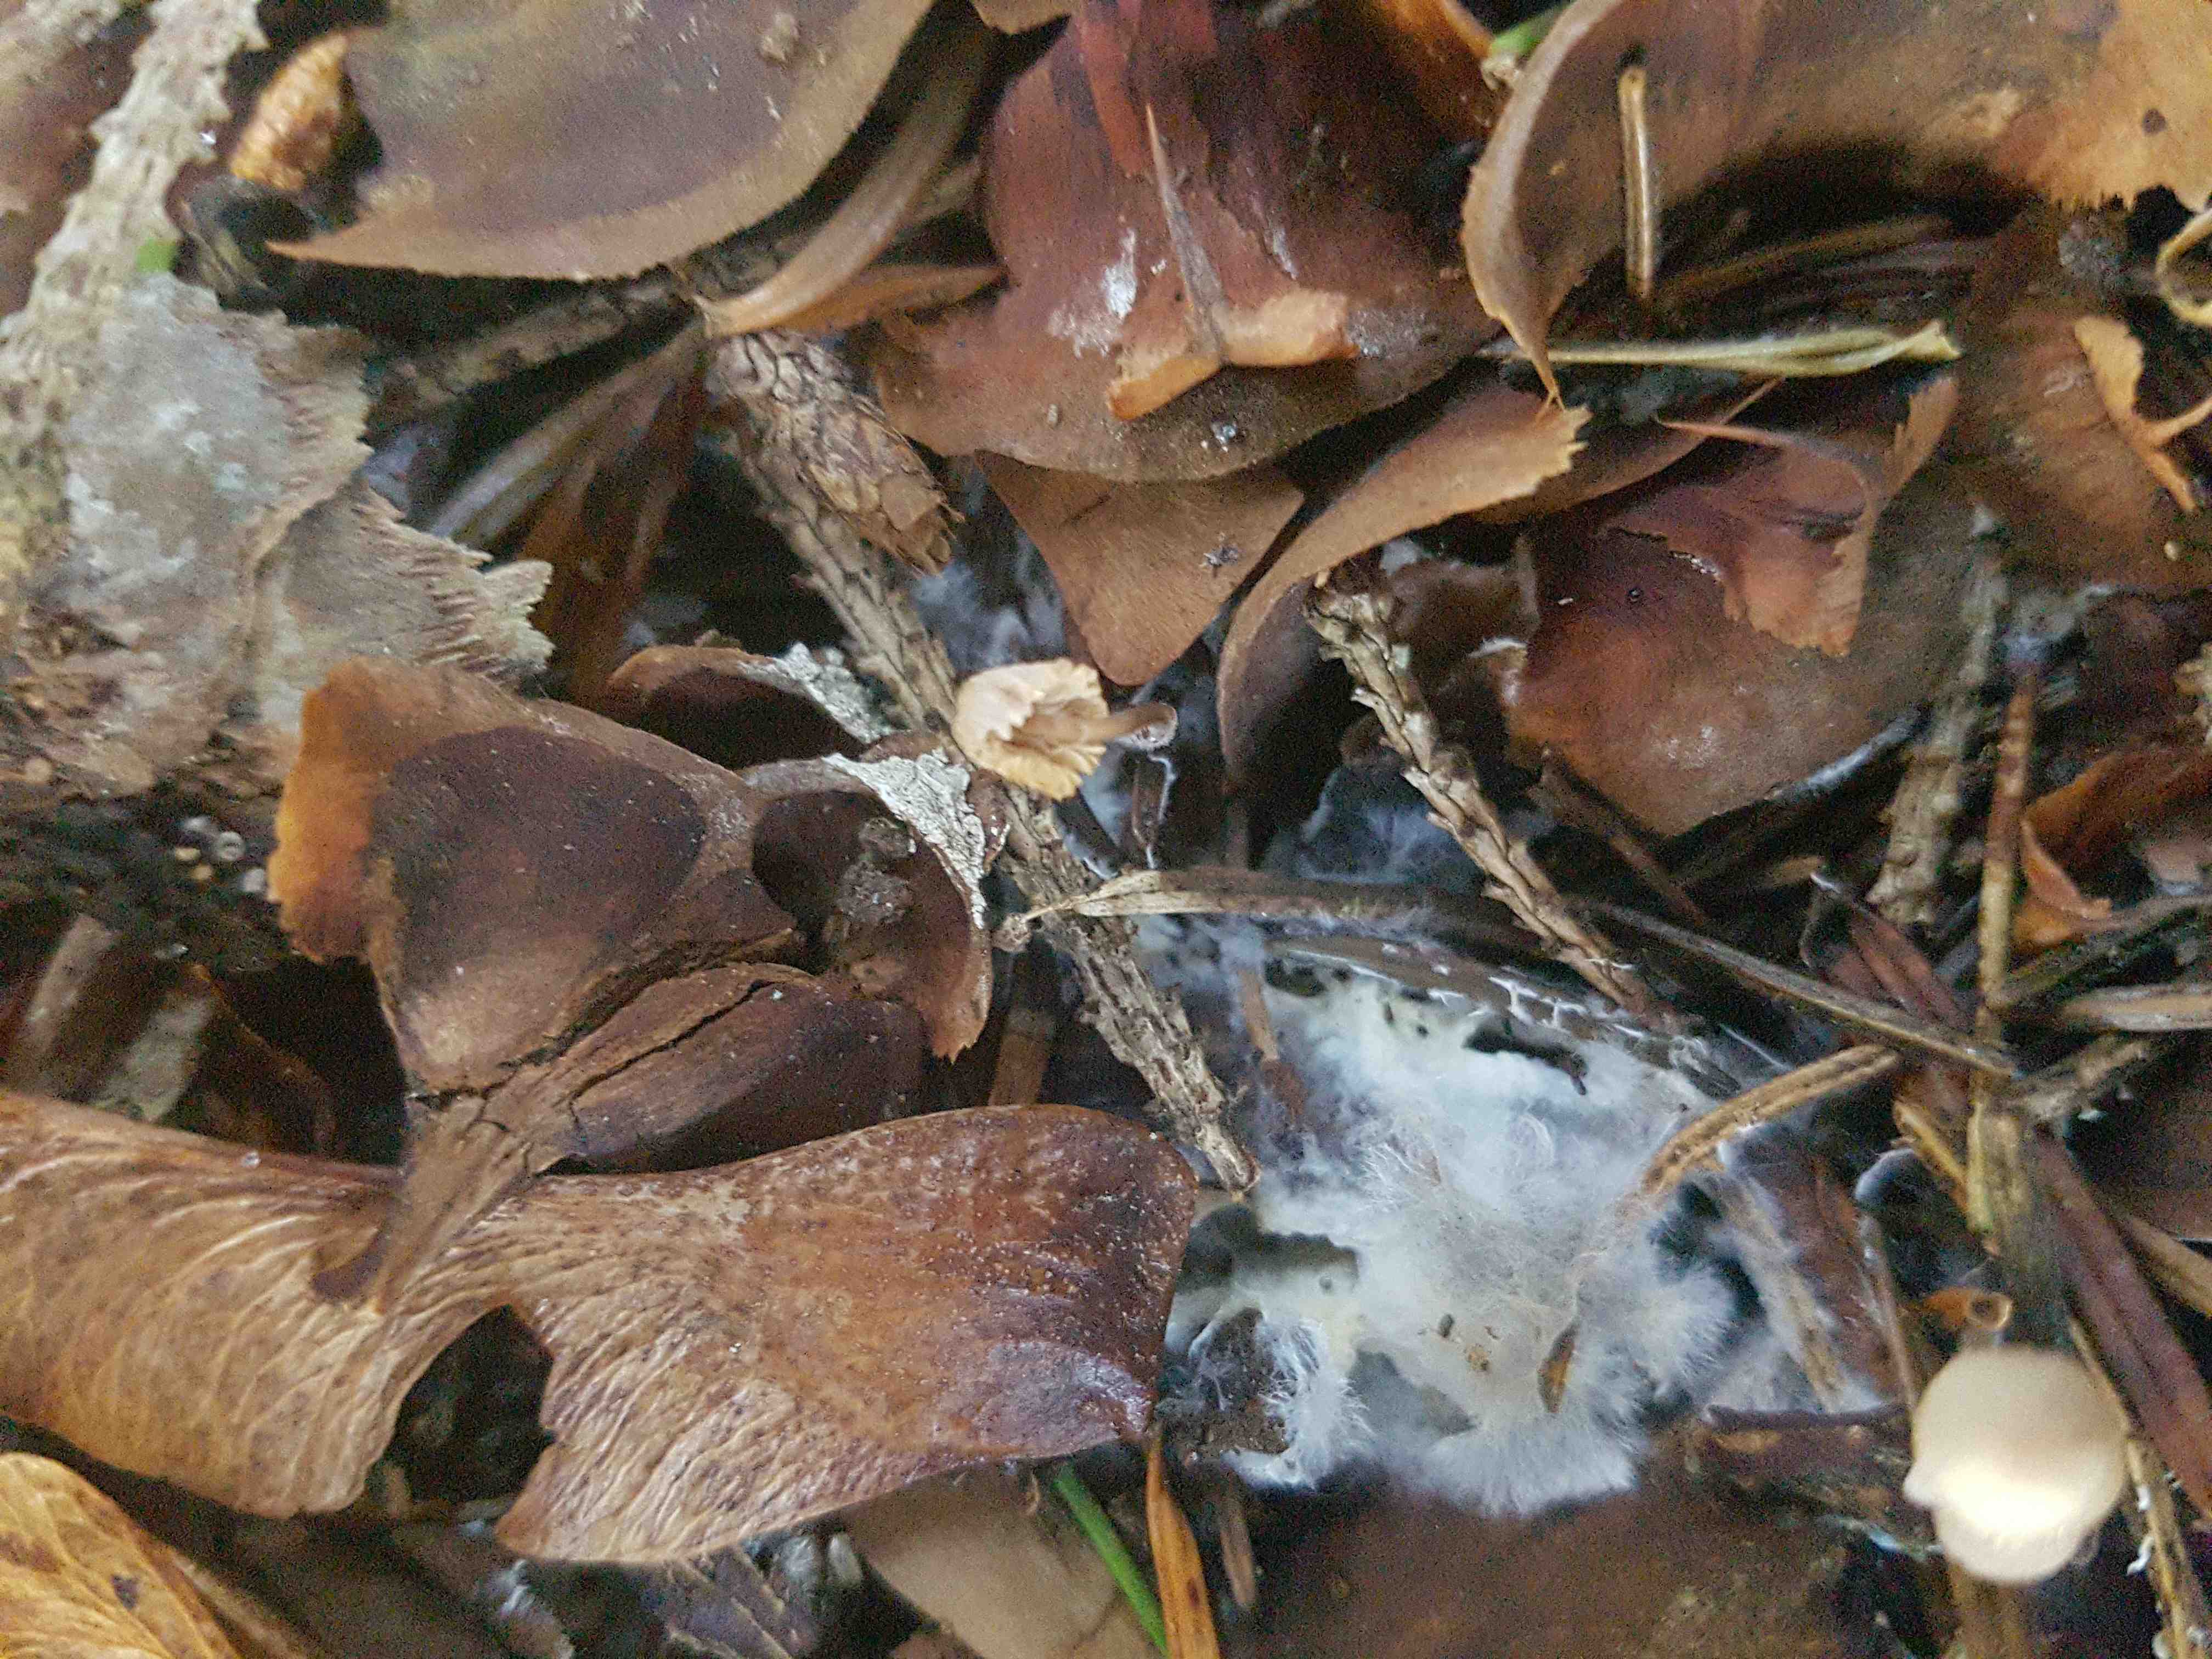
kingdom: Fungi
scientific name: Fungi
